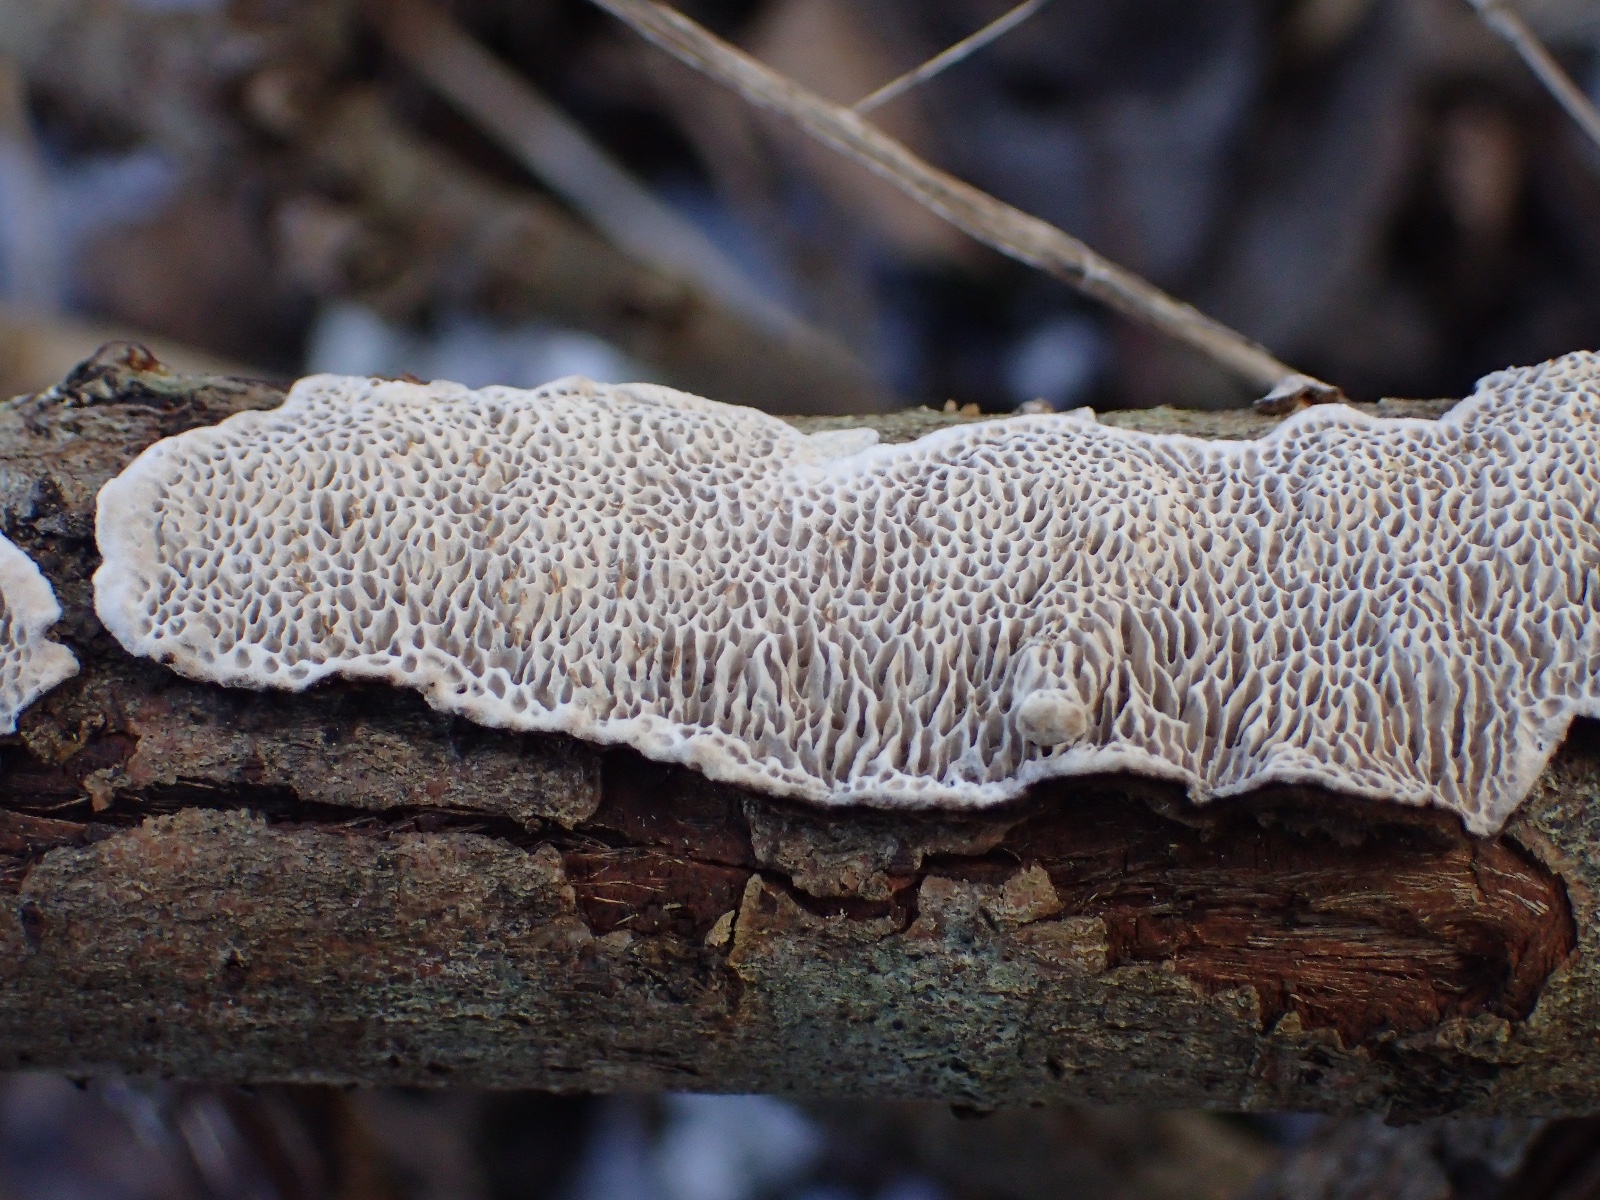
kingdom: Fungi
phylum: Basidiomycota
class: Agaricomycetes
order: Polyporales
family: Polyporaceae
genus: Podofomes
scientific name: Podofomes mollis
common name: blød begporesvamp
